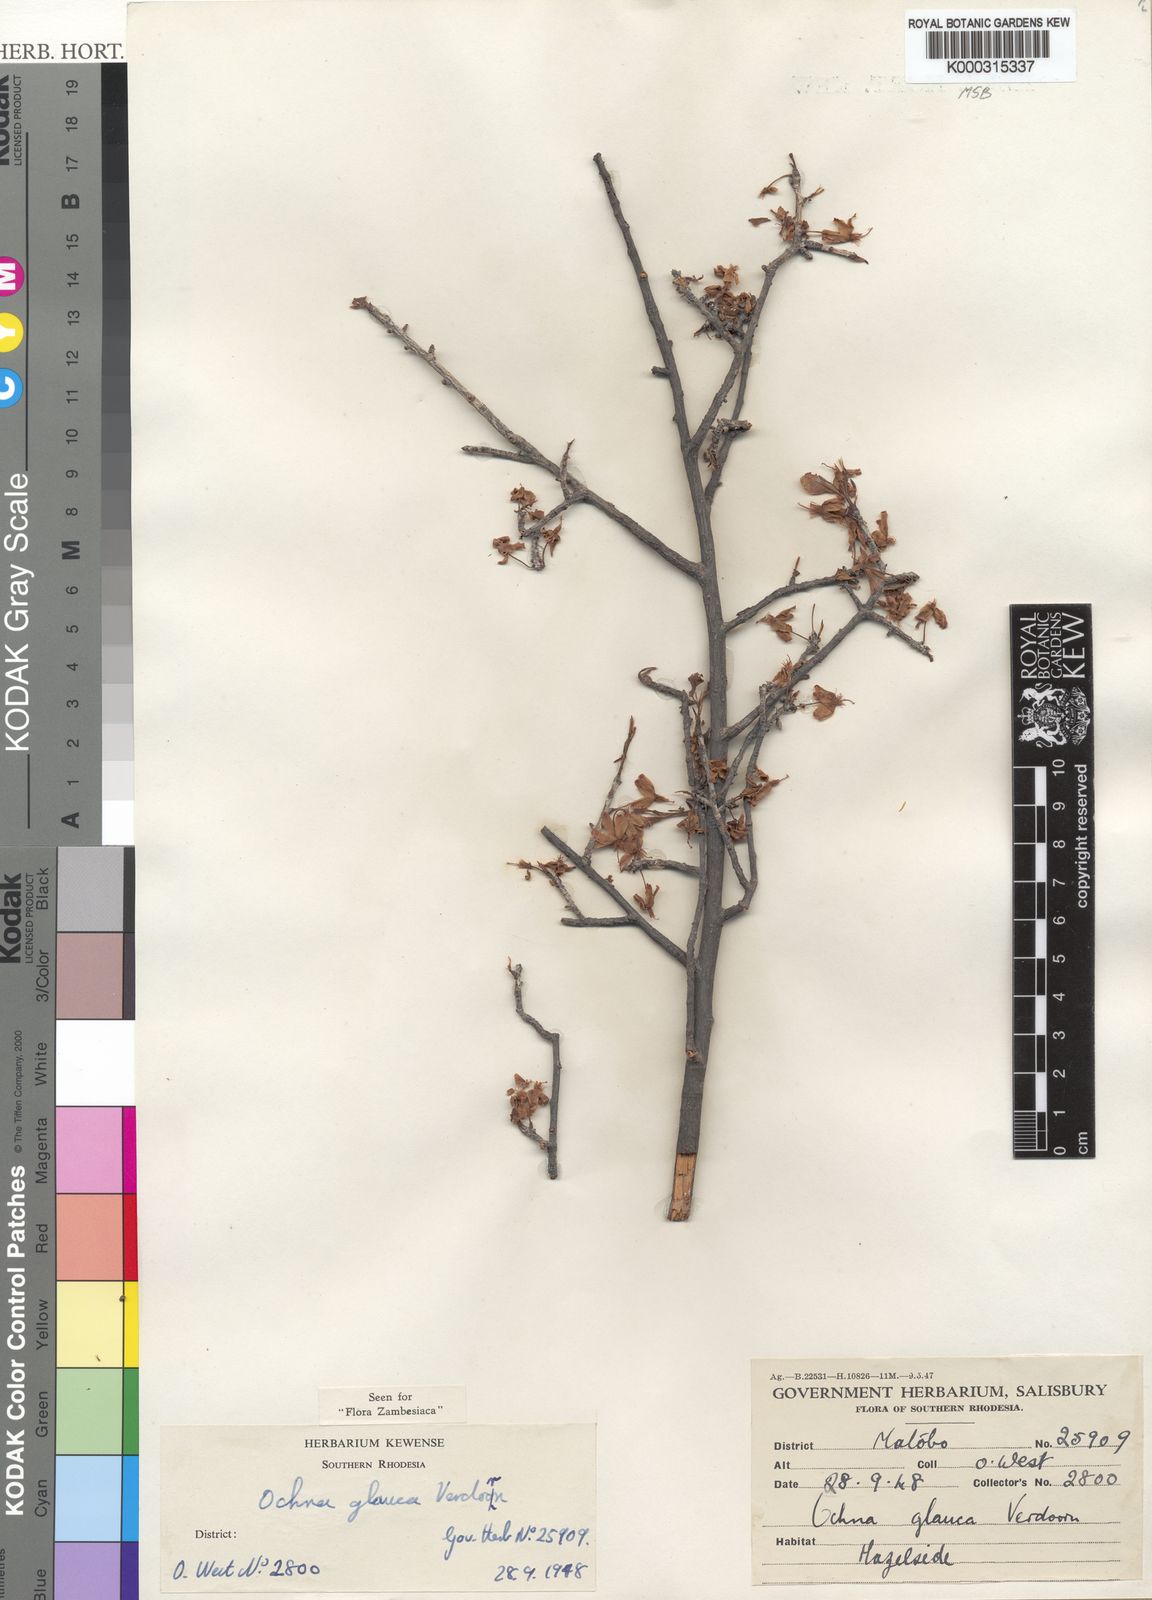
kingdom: Plantae
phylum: Tracheophyta
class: Magnoliopsida
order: Malpighiales
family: Ochnaceae
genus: Ochna
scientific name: Ochna glauca
